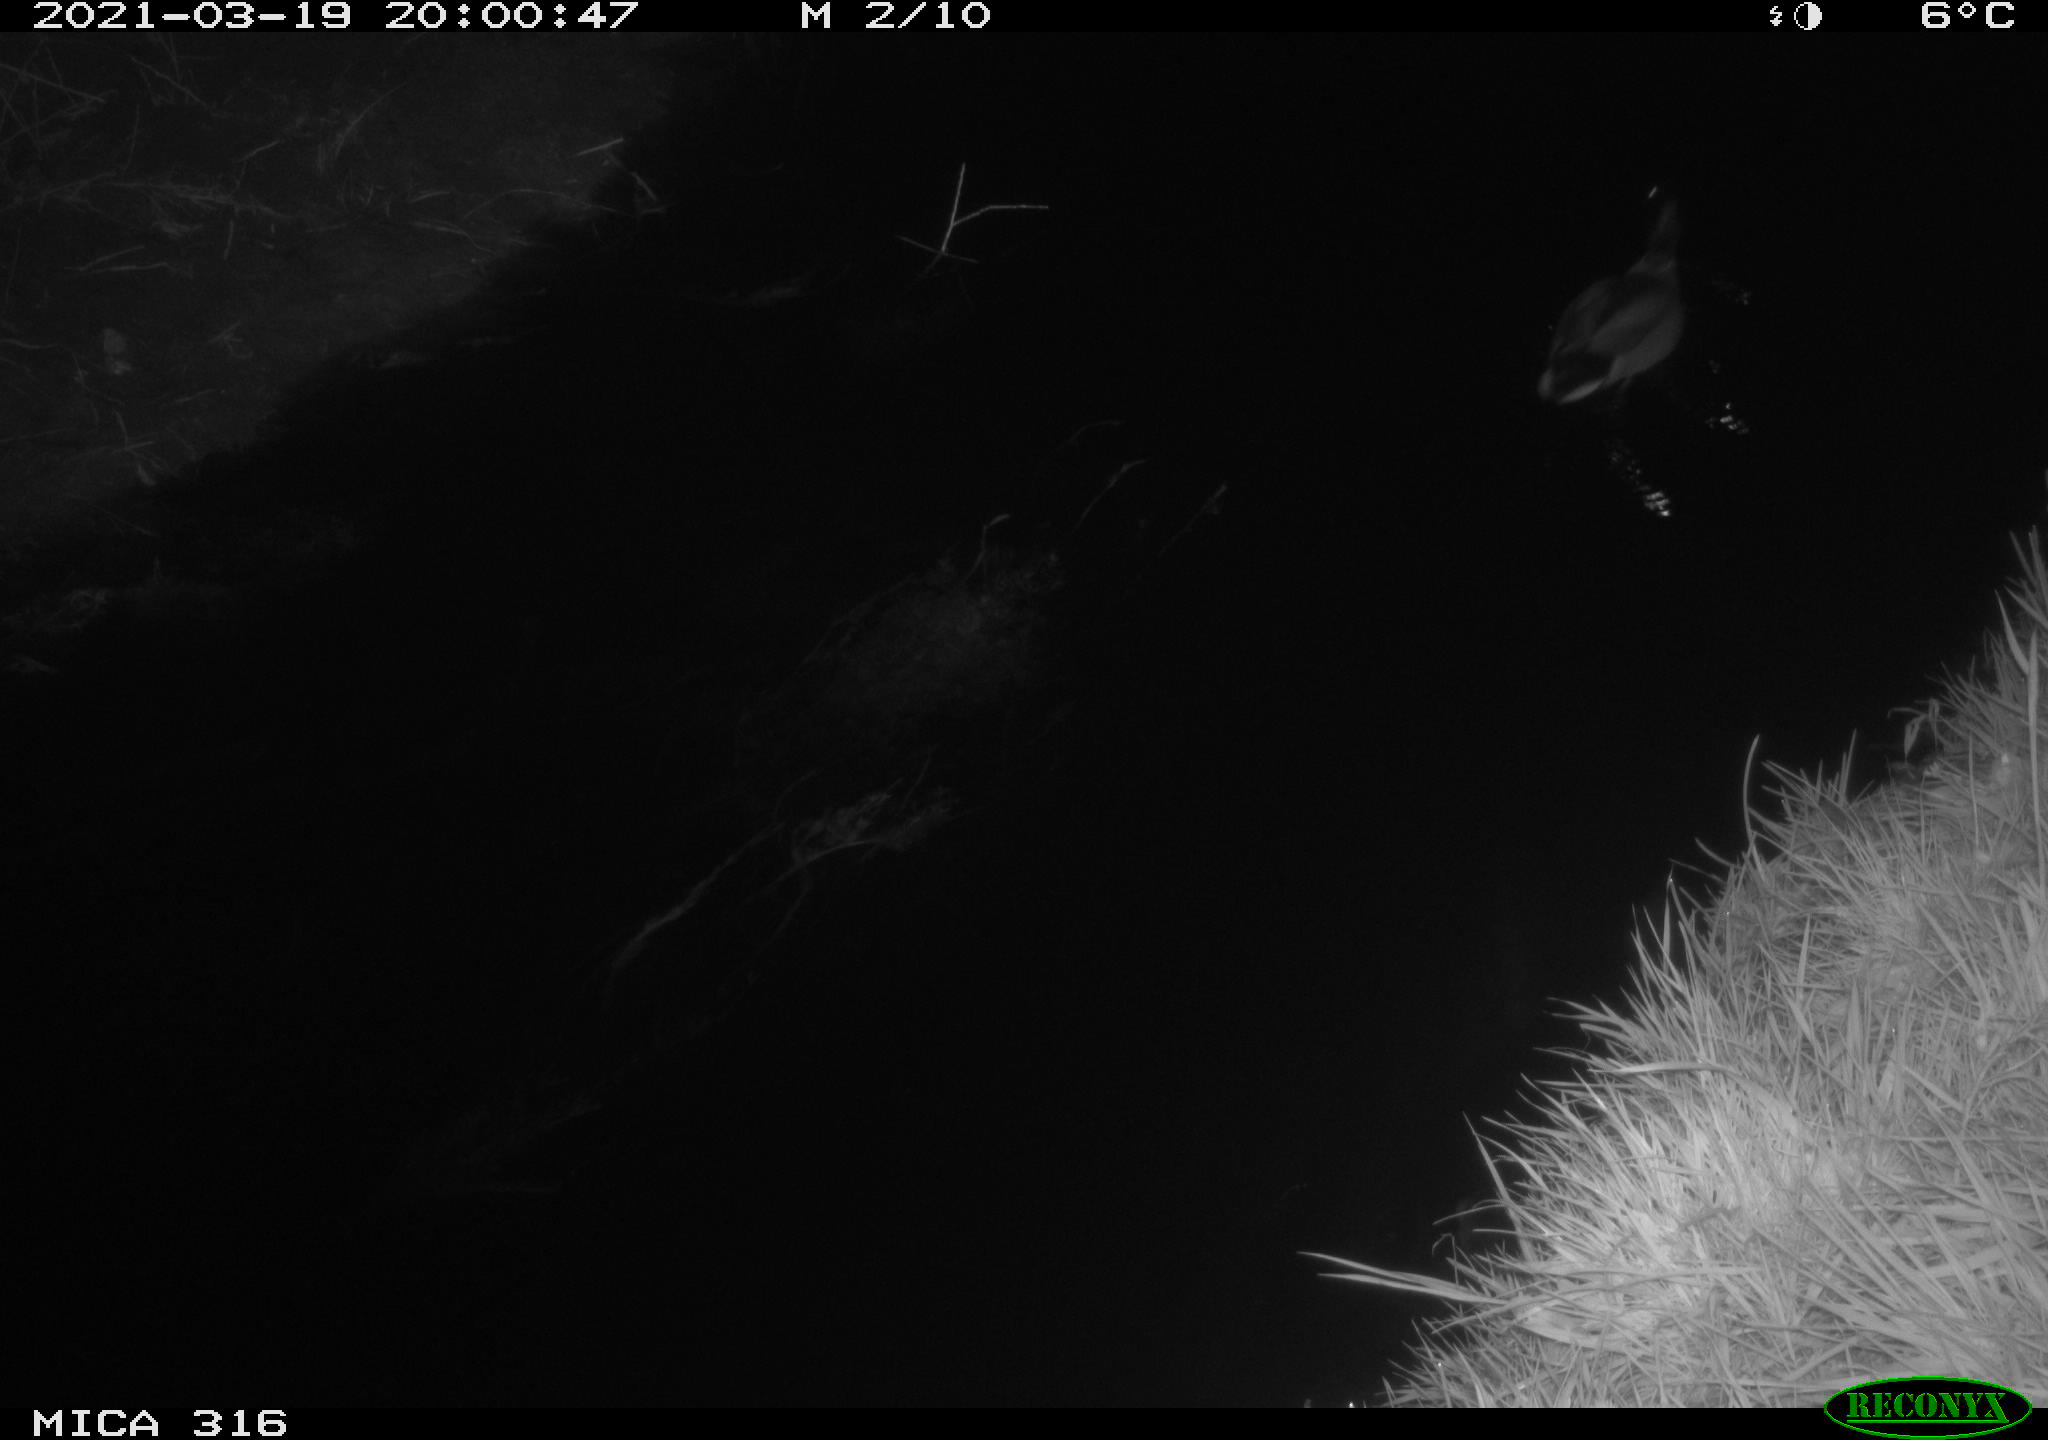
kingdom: Animalia
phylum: Chordata
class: Aves
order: Anseriformes
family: Anatidae
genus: Anas
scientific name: Anas platyrhynchos
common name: Mallard
